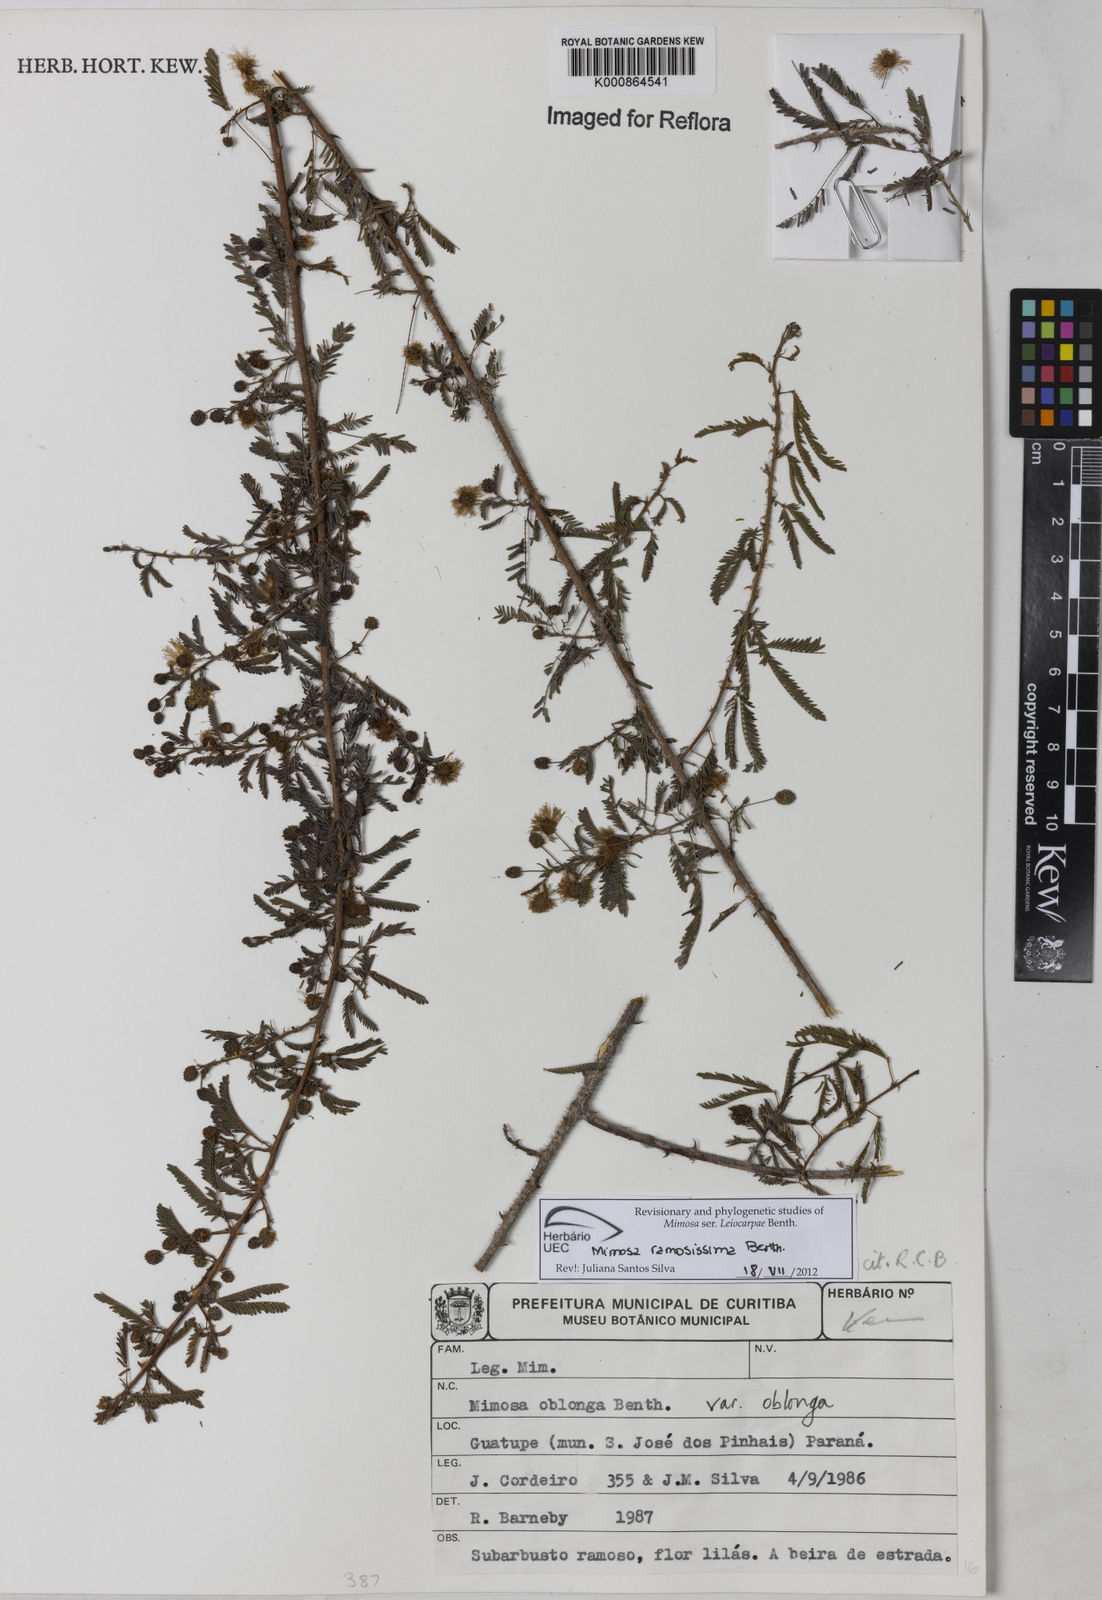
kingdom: Plantae
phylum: Tracheophyta
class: Magnoliopsida
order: Fabales
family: Fabaceae
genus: Mimosa
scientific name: Mimosa ramosissima
